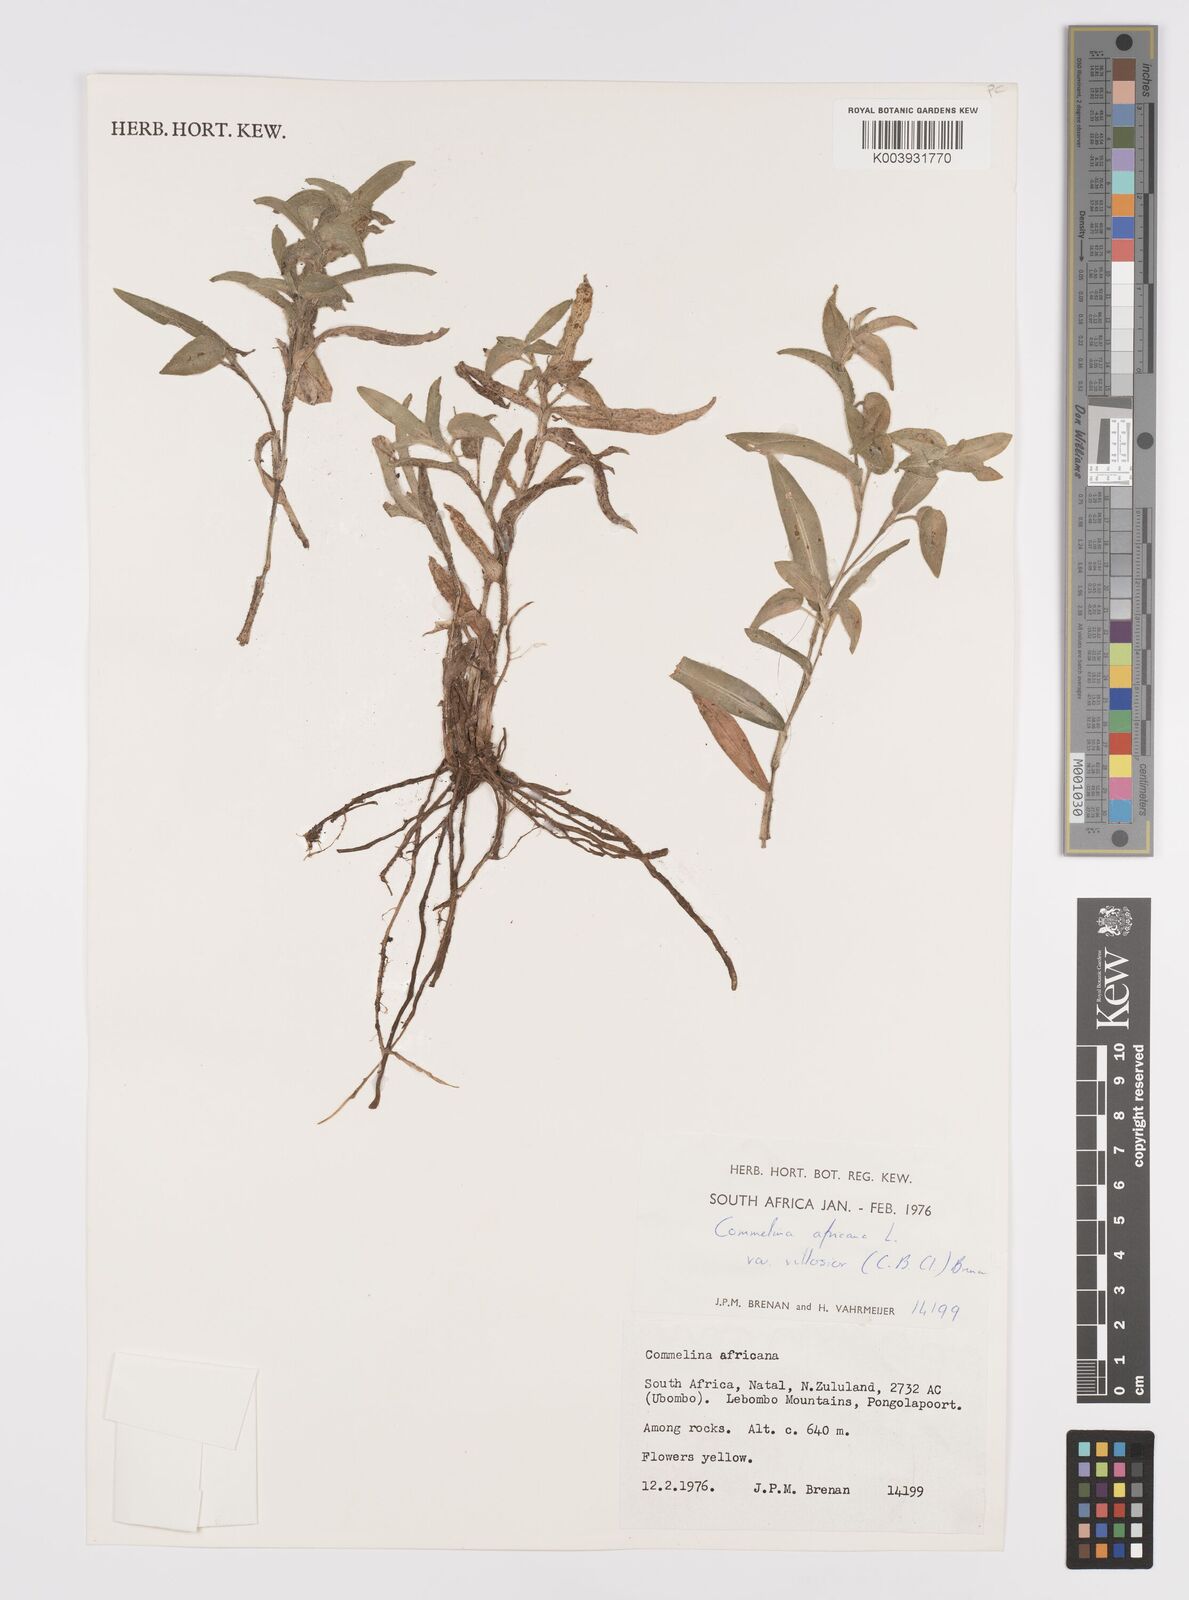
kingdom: Plantae
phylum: Tracheophyta
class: Liliopsida
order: Commelinales
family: Commelinaceae
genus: Commelina
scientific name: Commelina africana
